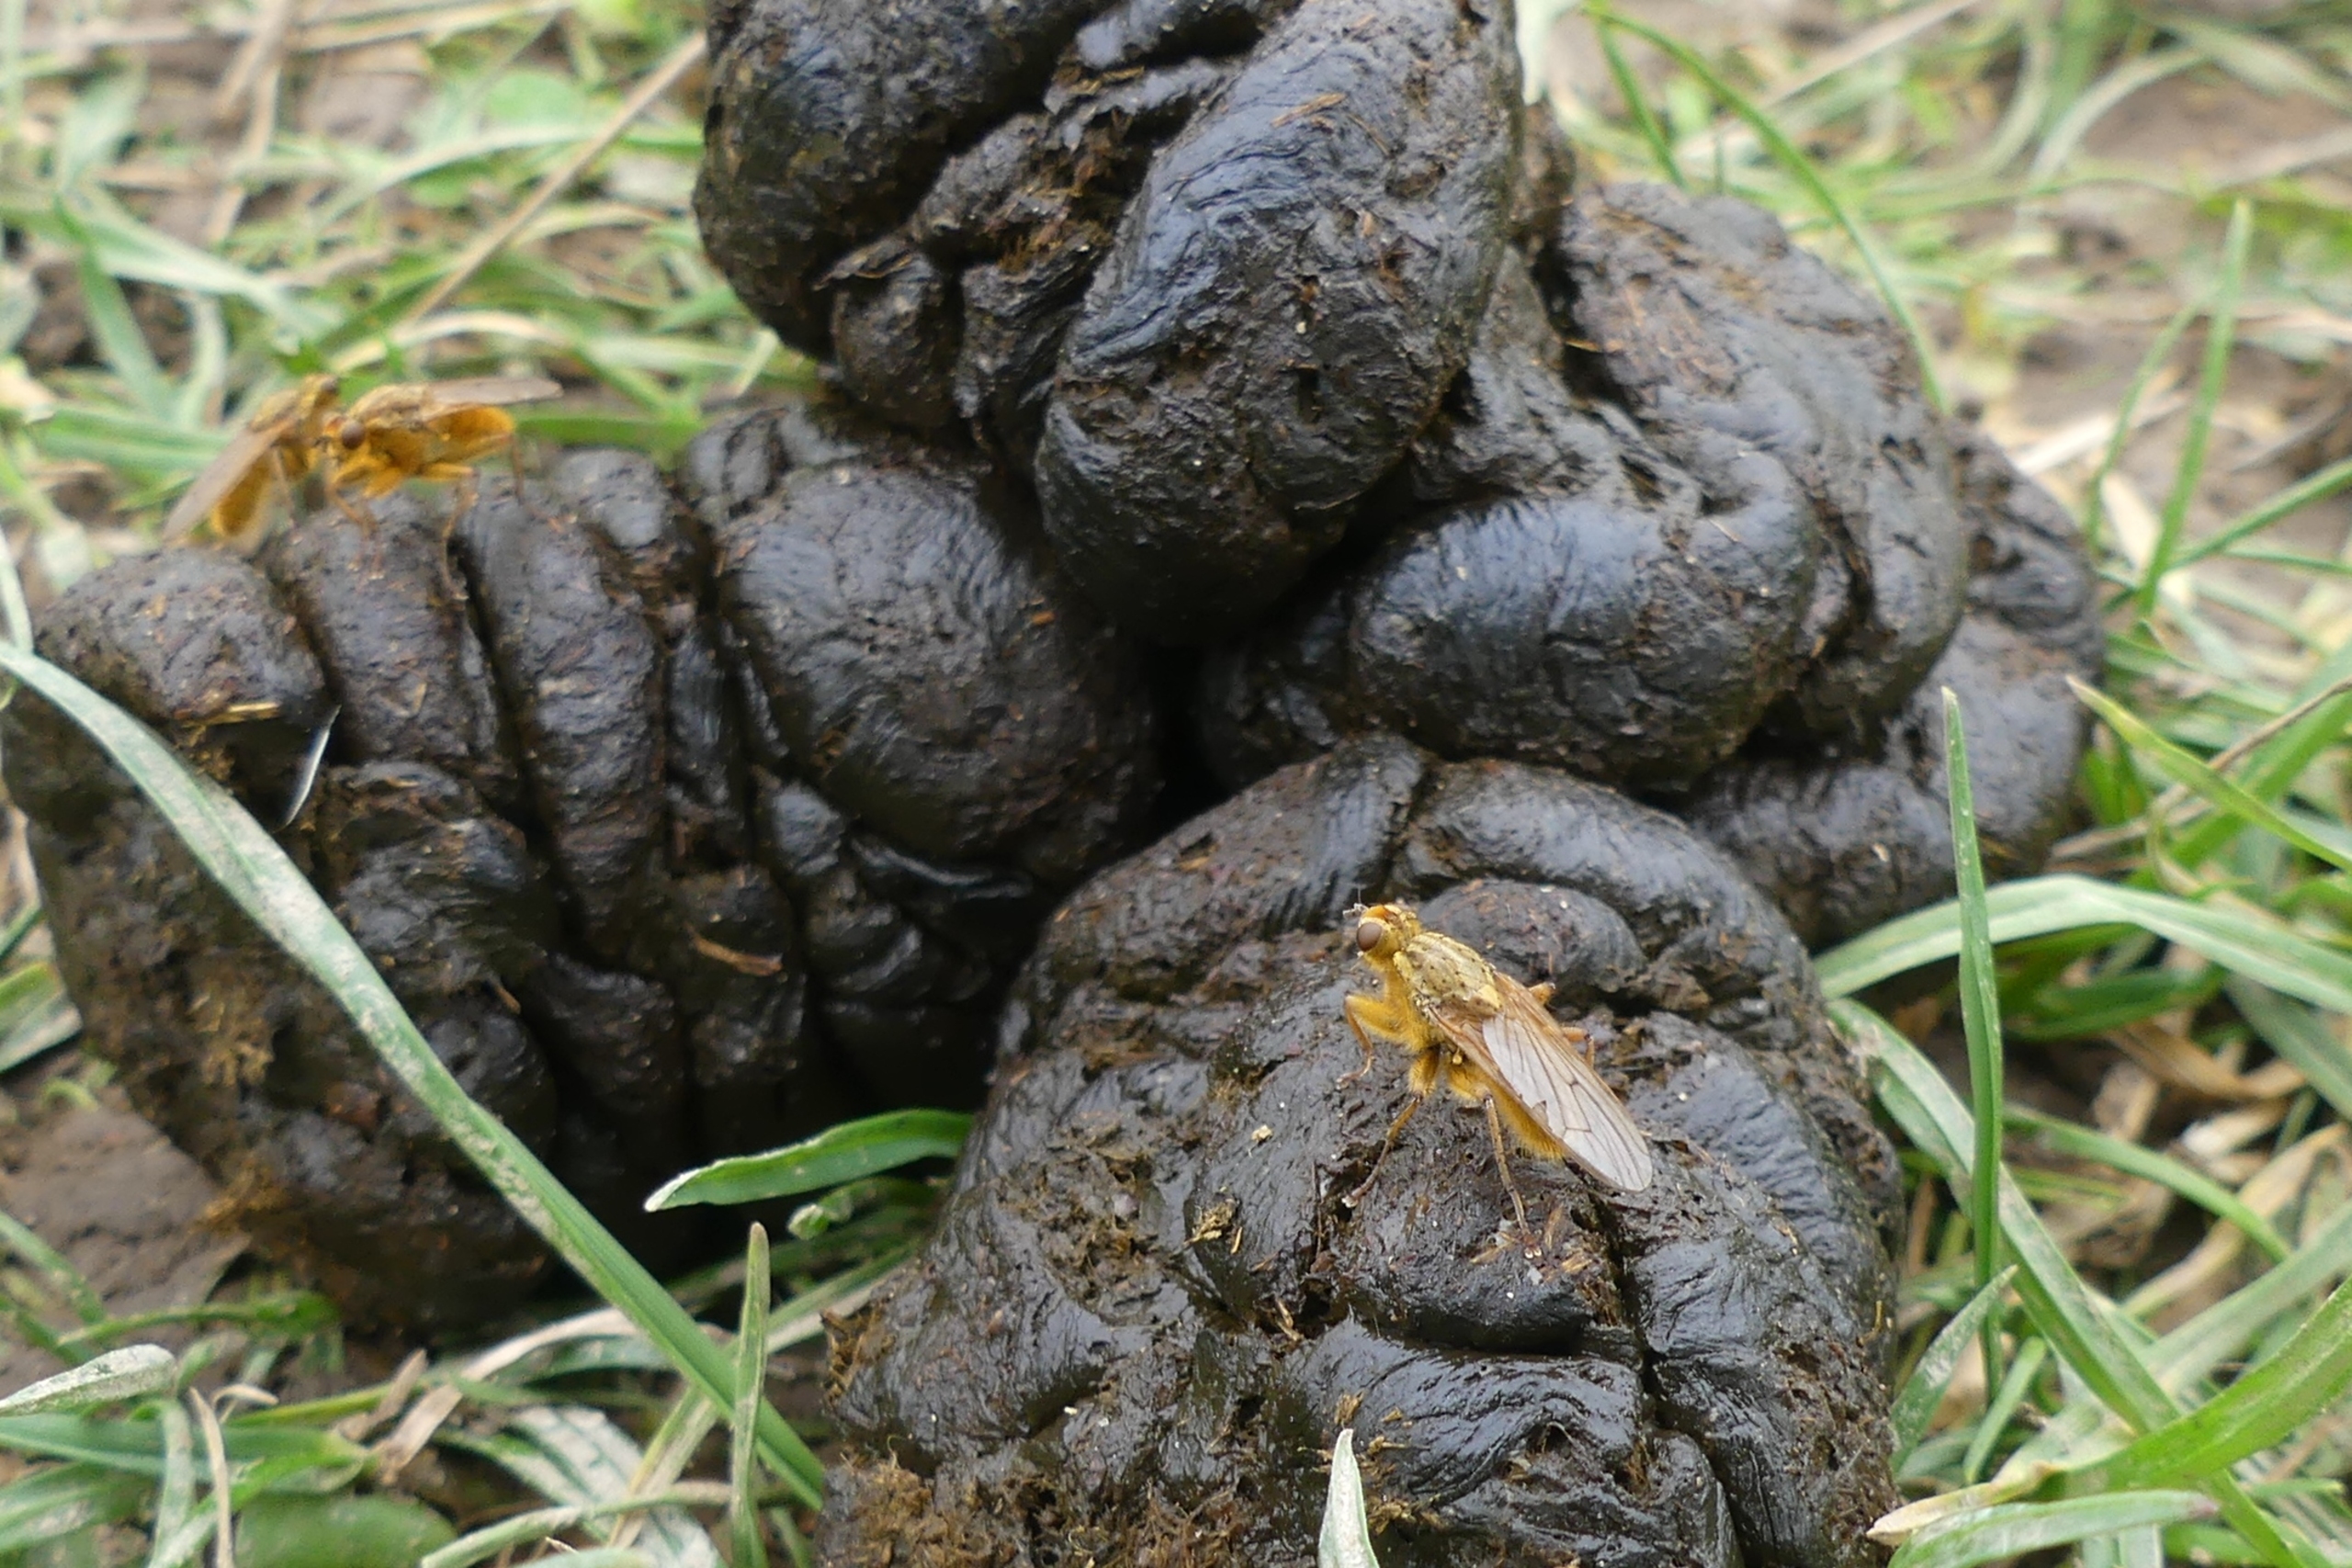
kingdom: Animalia
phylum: Arthropoda
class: Insecta
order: Diptera
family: Scathophagidae
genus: Scathophaga
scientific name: Scathophaga stercoraria
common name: Almindelig gødningsflue
